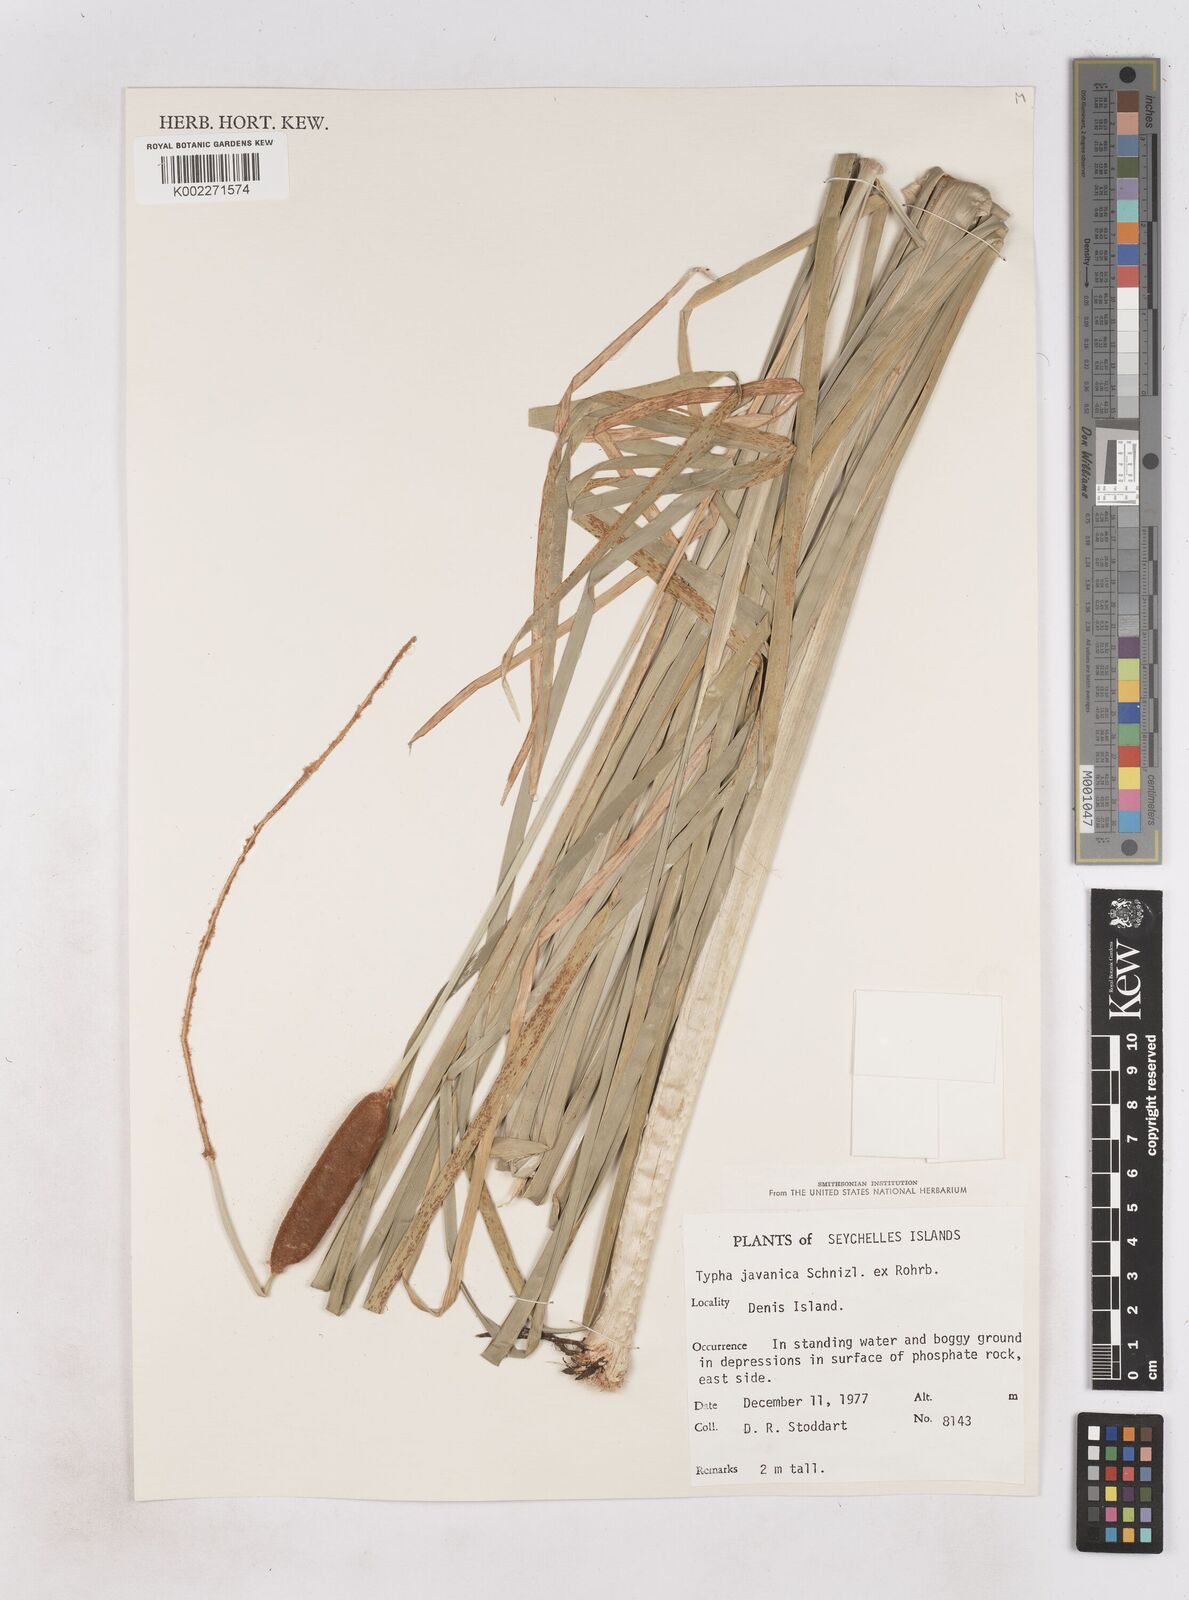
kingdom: Plantae
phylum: Tracheophyta
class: Liliopsida
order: Poales
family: Typhaceae
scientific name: Typhaceae
